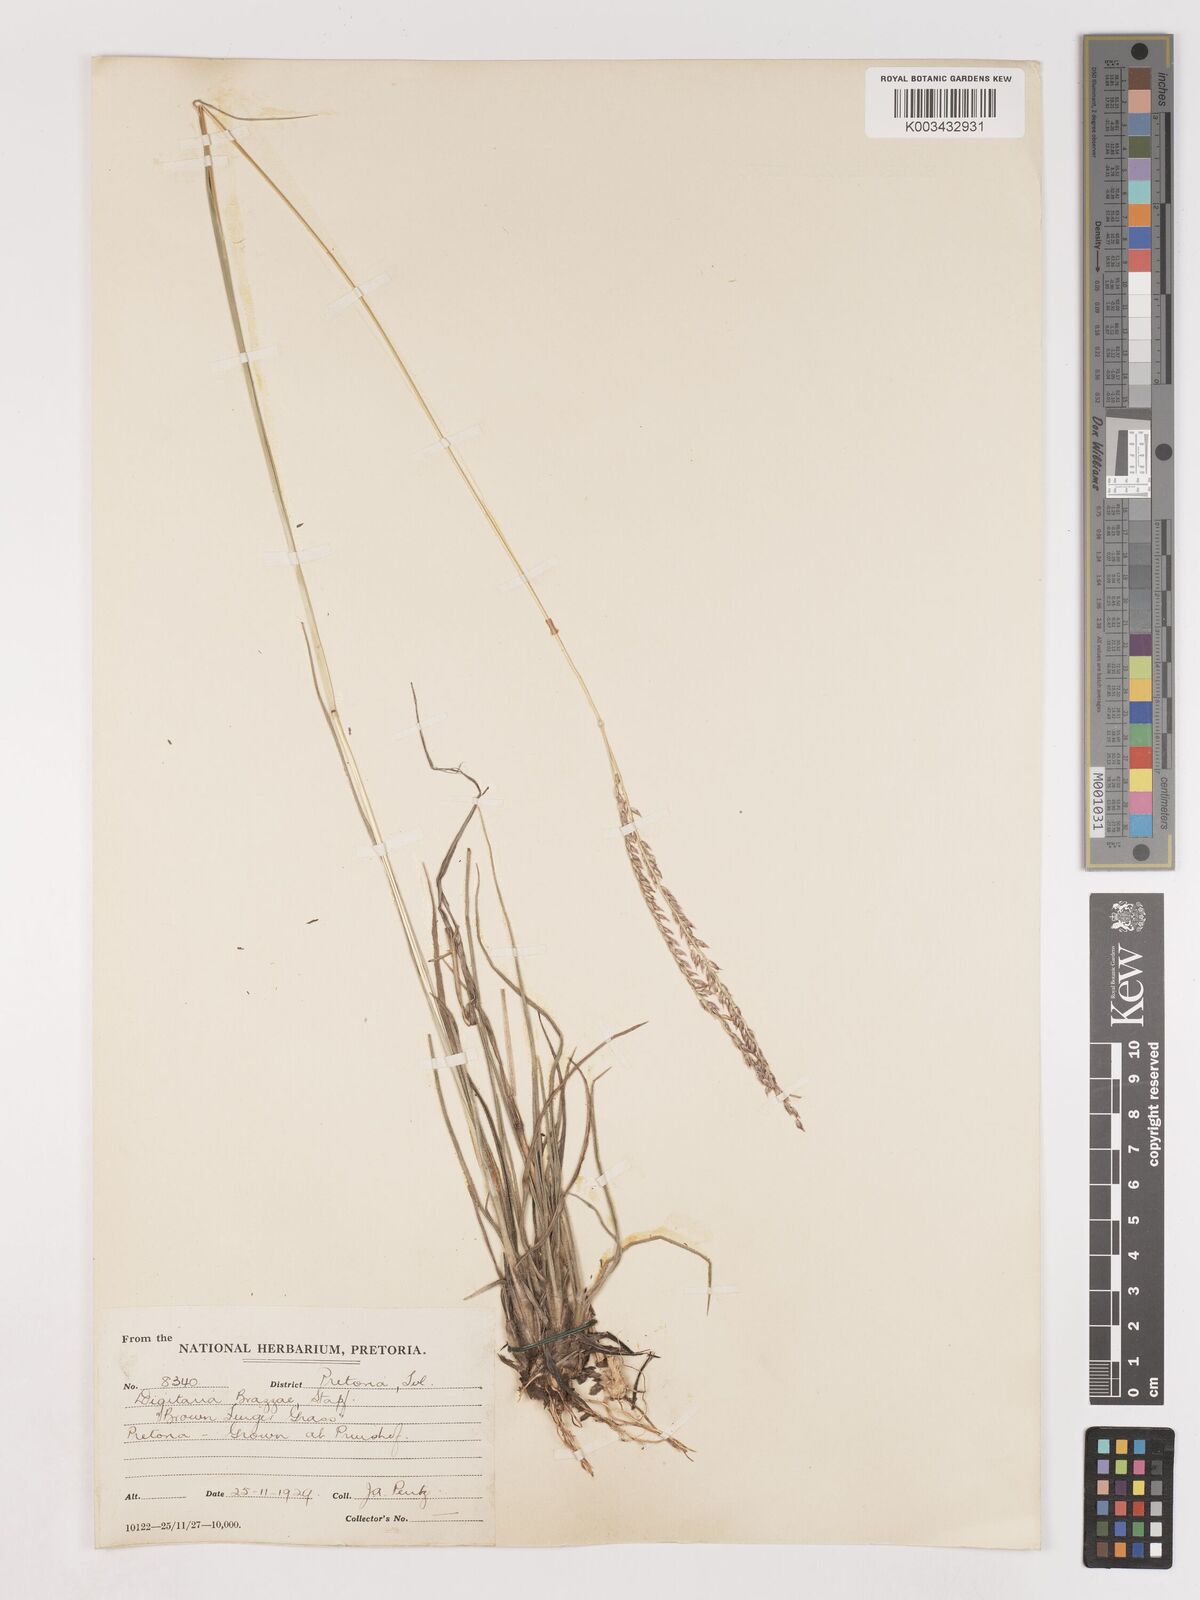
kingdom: Plantae
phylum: Tracheophyta
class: Liliopsida
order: Poales
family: Poaceae
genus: Digitaria
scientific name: Digitaria brazzae
